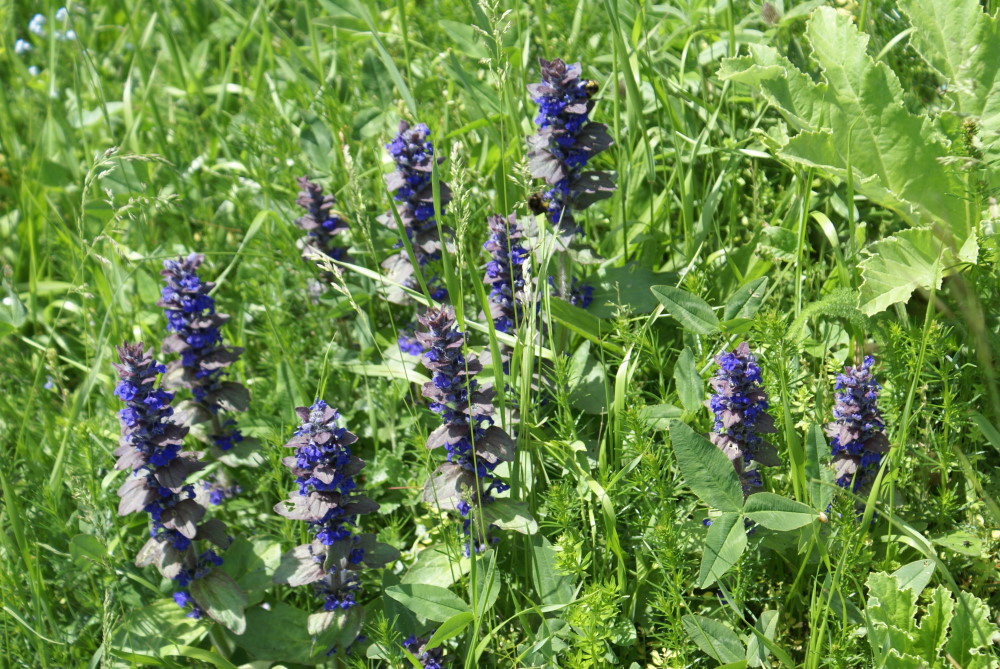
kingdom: Plantae
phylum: Tracheophyta
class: Magnoliopsida
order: Lamiales
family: Lamiaceae
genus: Ajuga
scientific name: Ajuga genevensis
